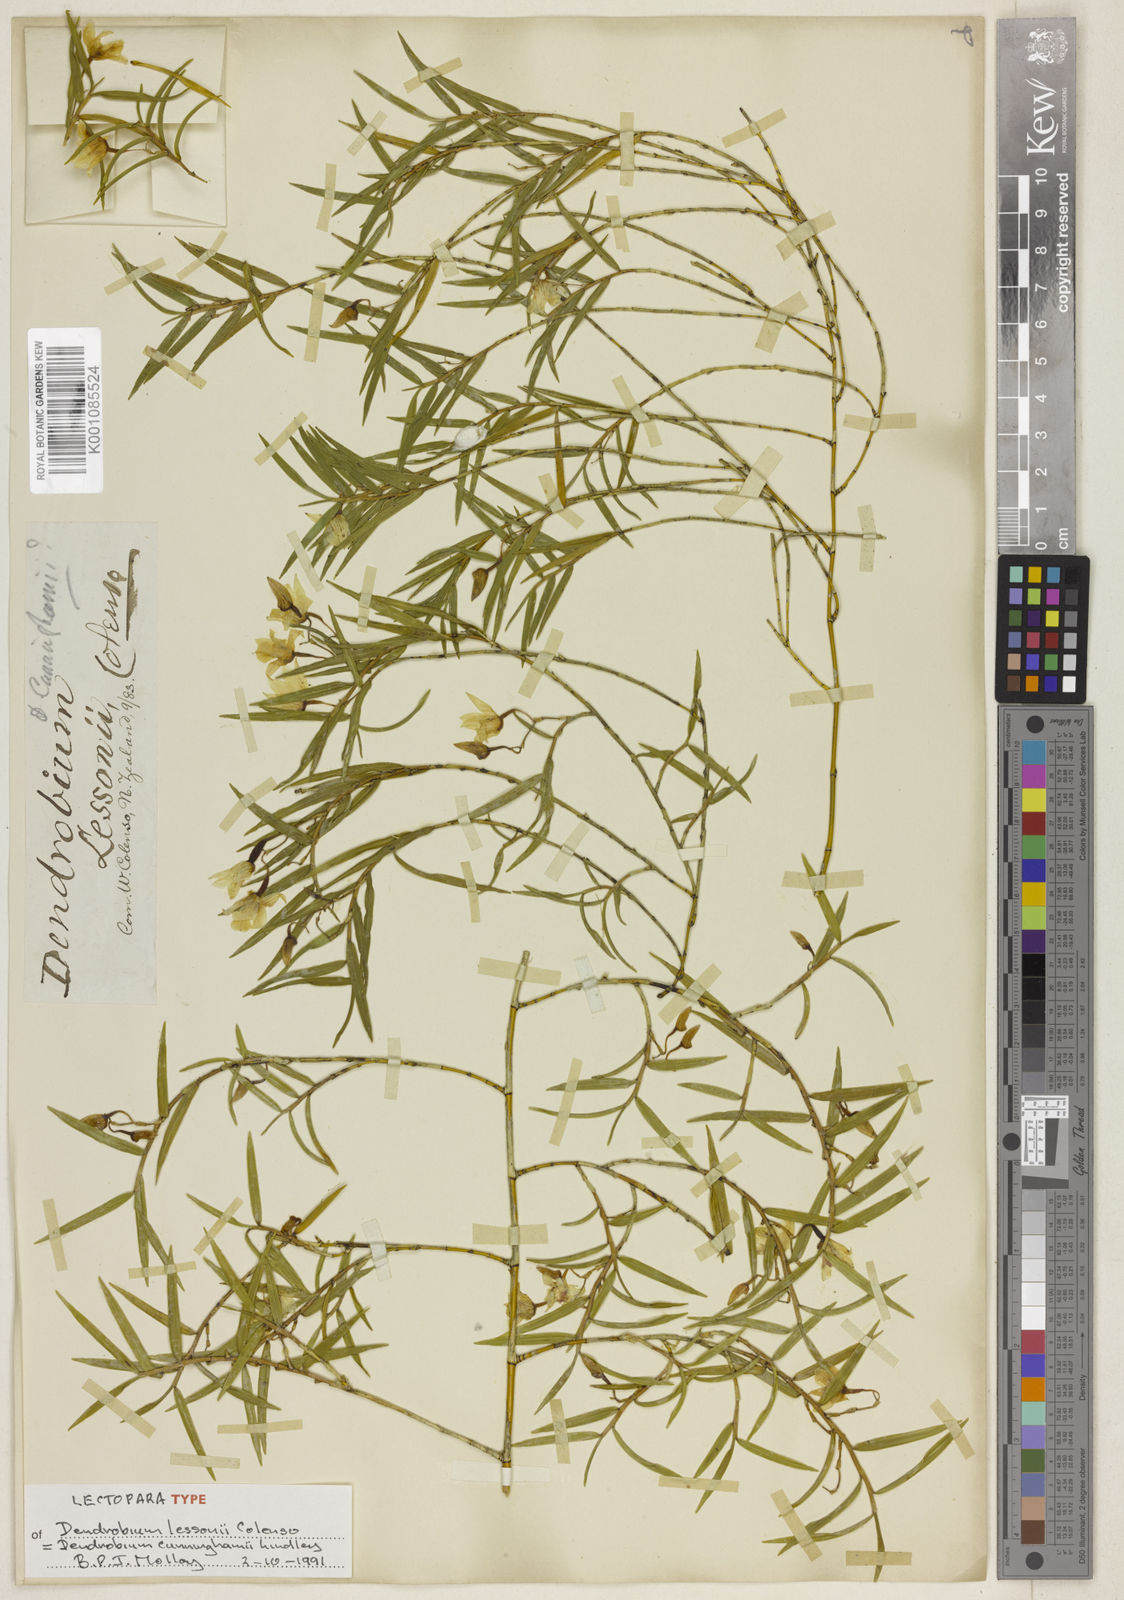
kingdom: Plantae
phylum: Tracheophyta
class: Liliopsida
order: Asparagales
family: Orchidaceae
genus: Dendrobium
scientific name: Dendrobium cunninghamii
